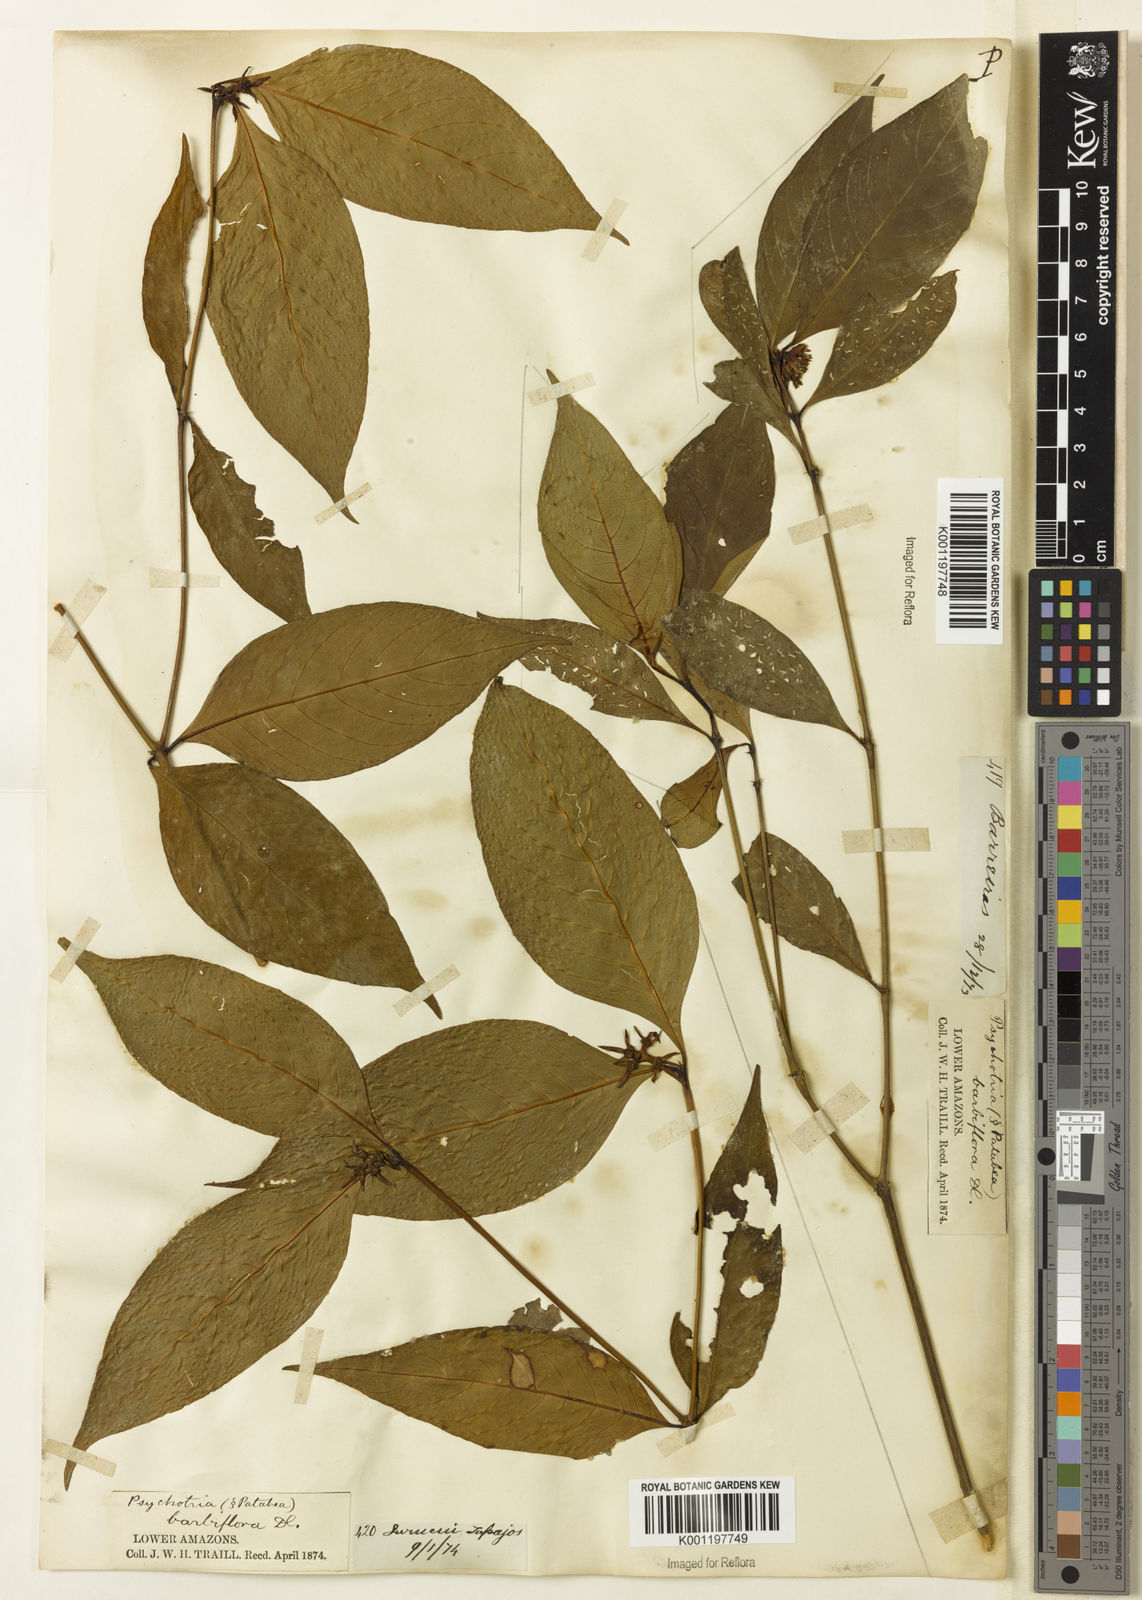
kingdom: Plantae
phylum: Tracheophyta
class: Magnoliopsida
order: Gentianales
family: Rubiaceae
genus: Palicourea
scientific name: Palicourea hoffmannseggiana
